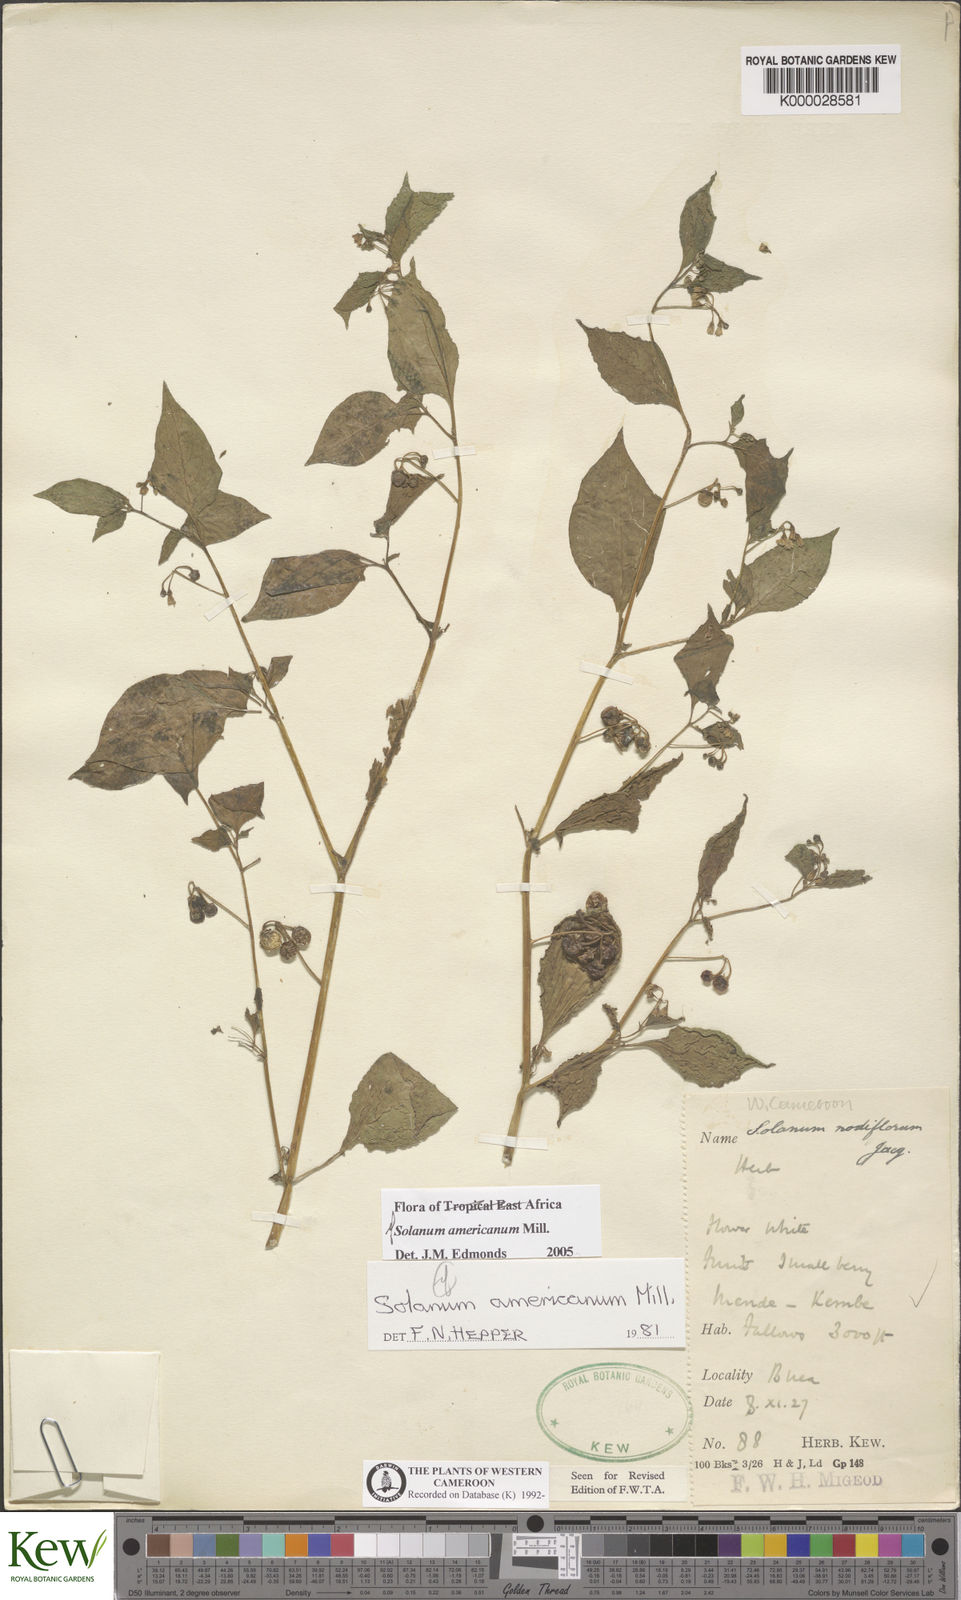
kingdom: Plantae
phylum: Tracheophyta
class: Magnoliopsida
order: Solanales
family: Solanaceae
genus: Solanum
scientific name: Solanum americanum
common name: American black nightshade
